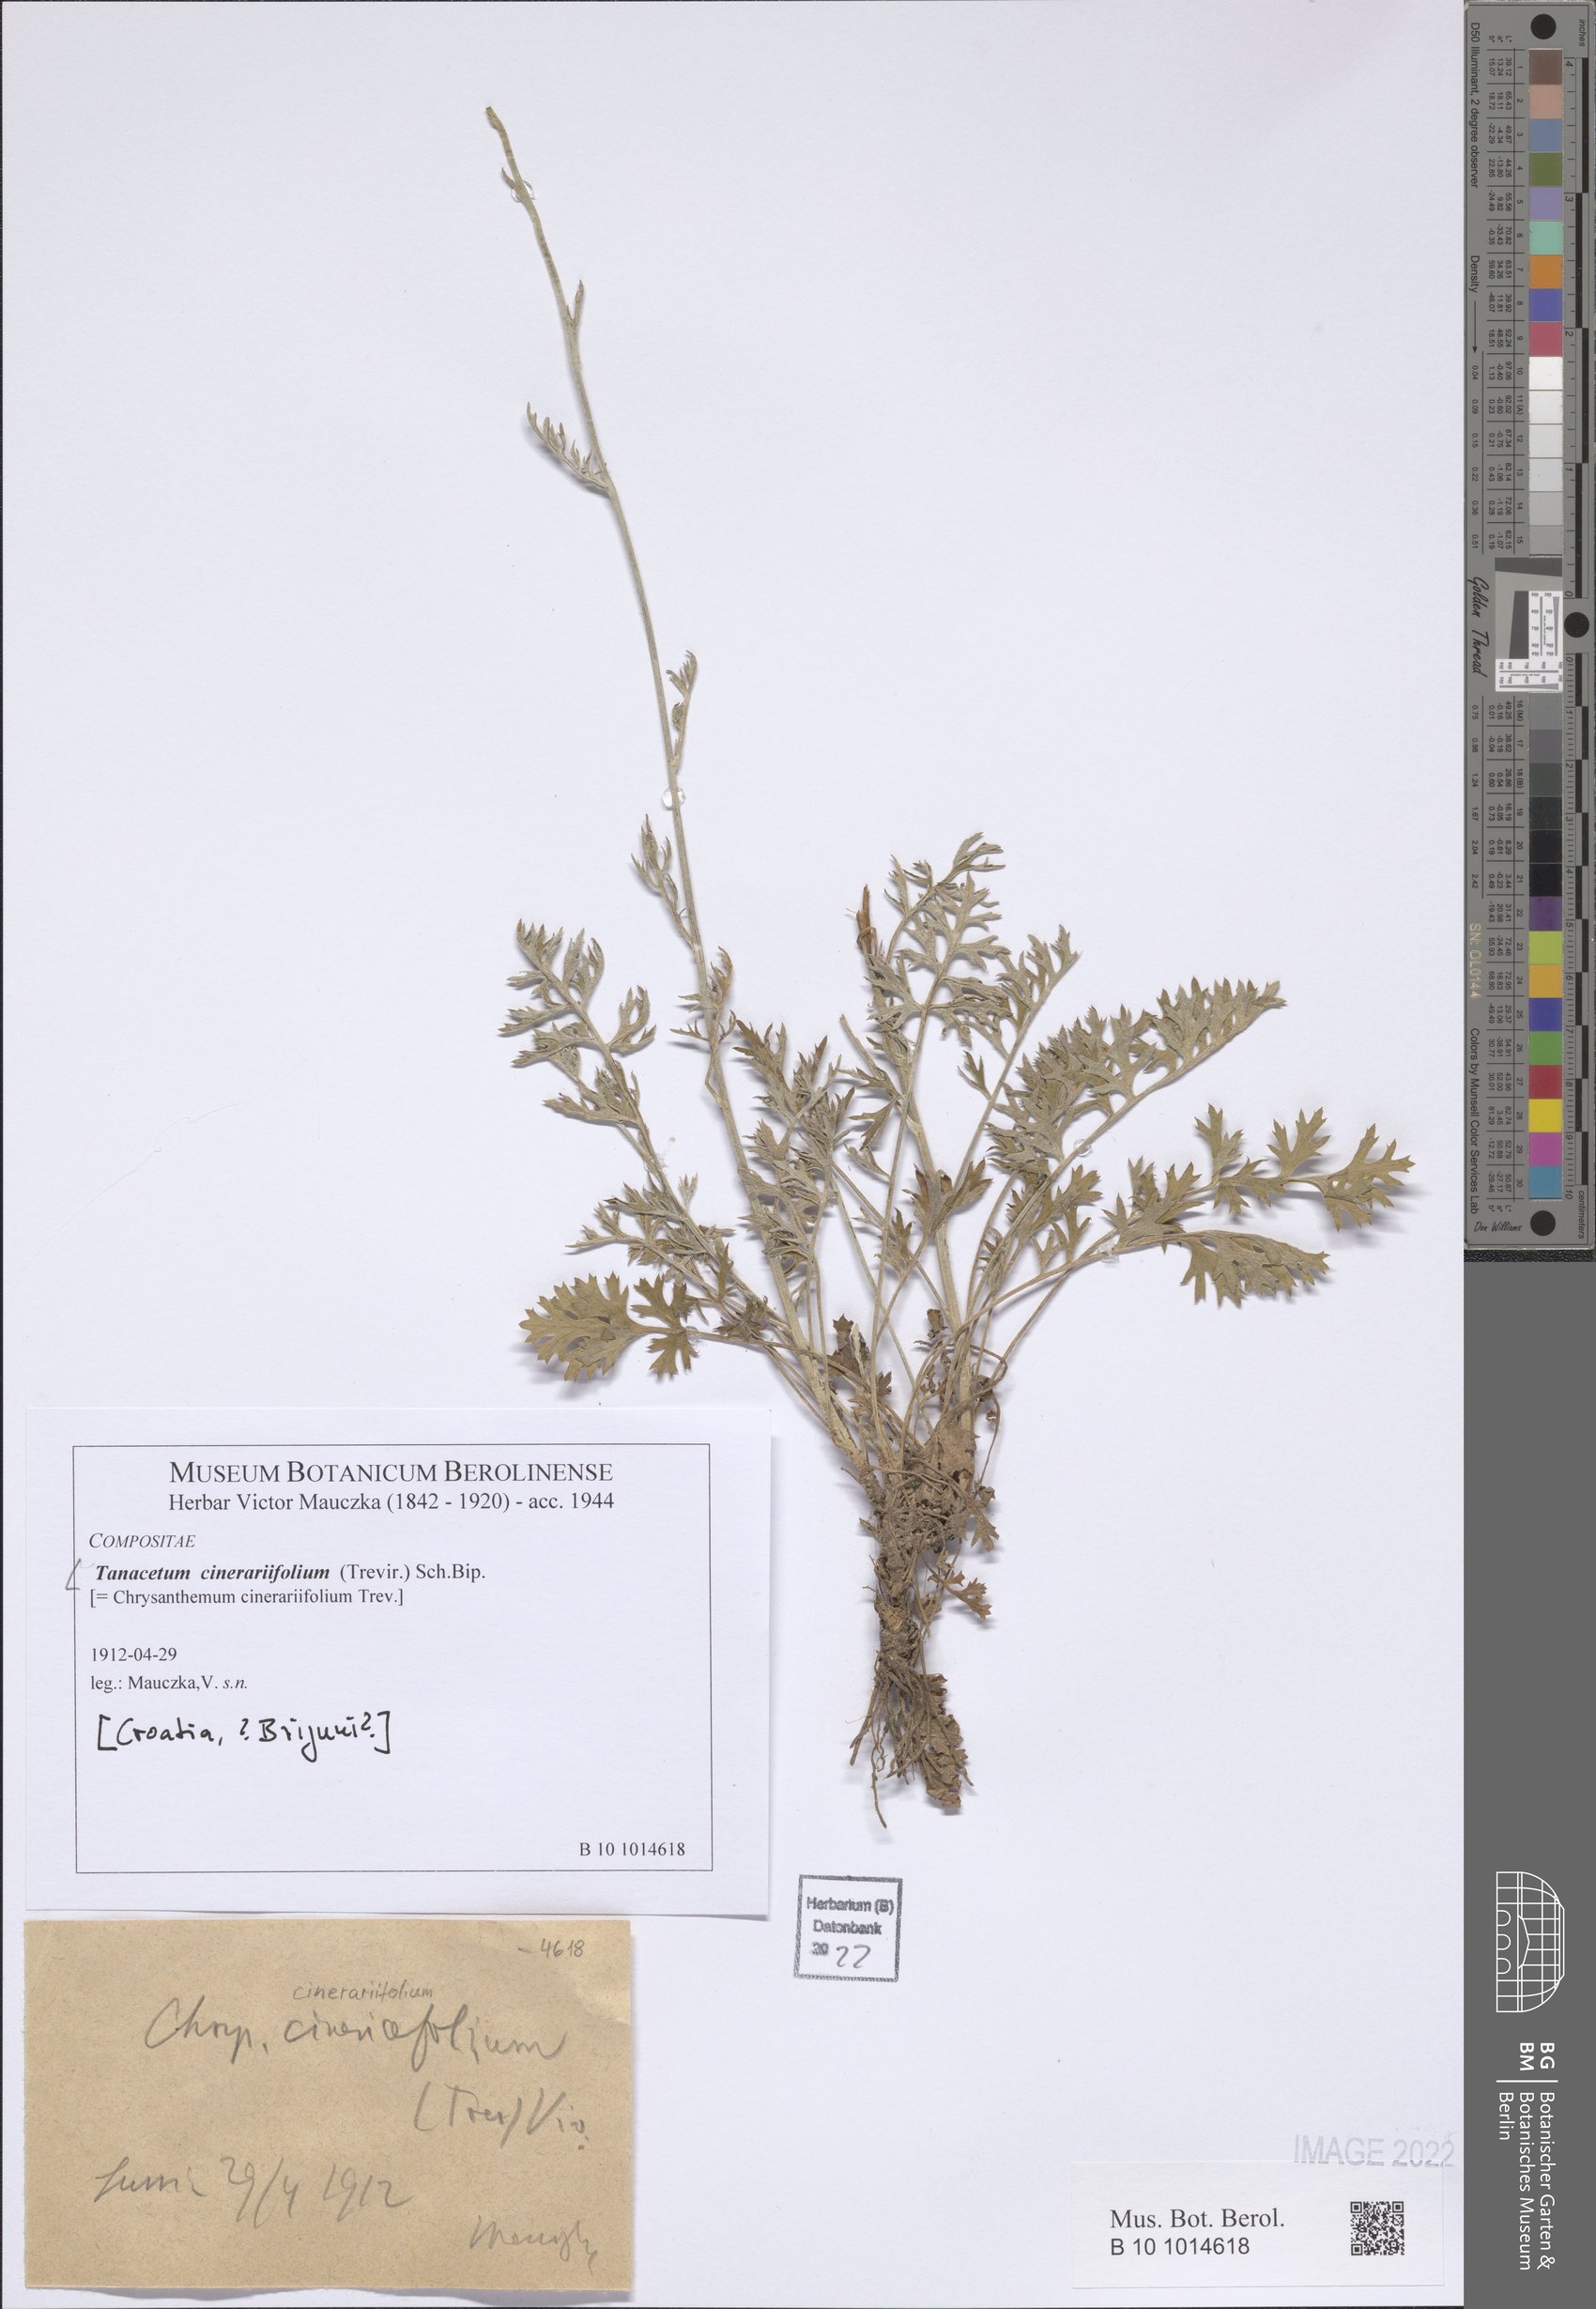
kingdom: Plantae
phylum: Tracheophyta
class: Magnoliopsida
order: Asterales
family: Asteraceae
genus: Tanacetum
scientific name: Tanacetum cinerariifolium
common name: Dalmatian pyrethrum
